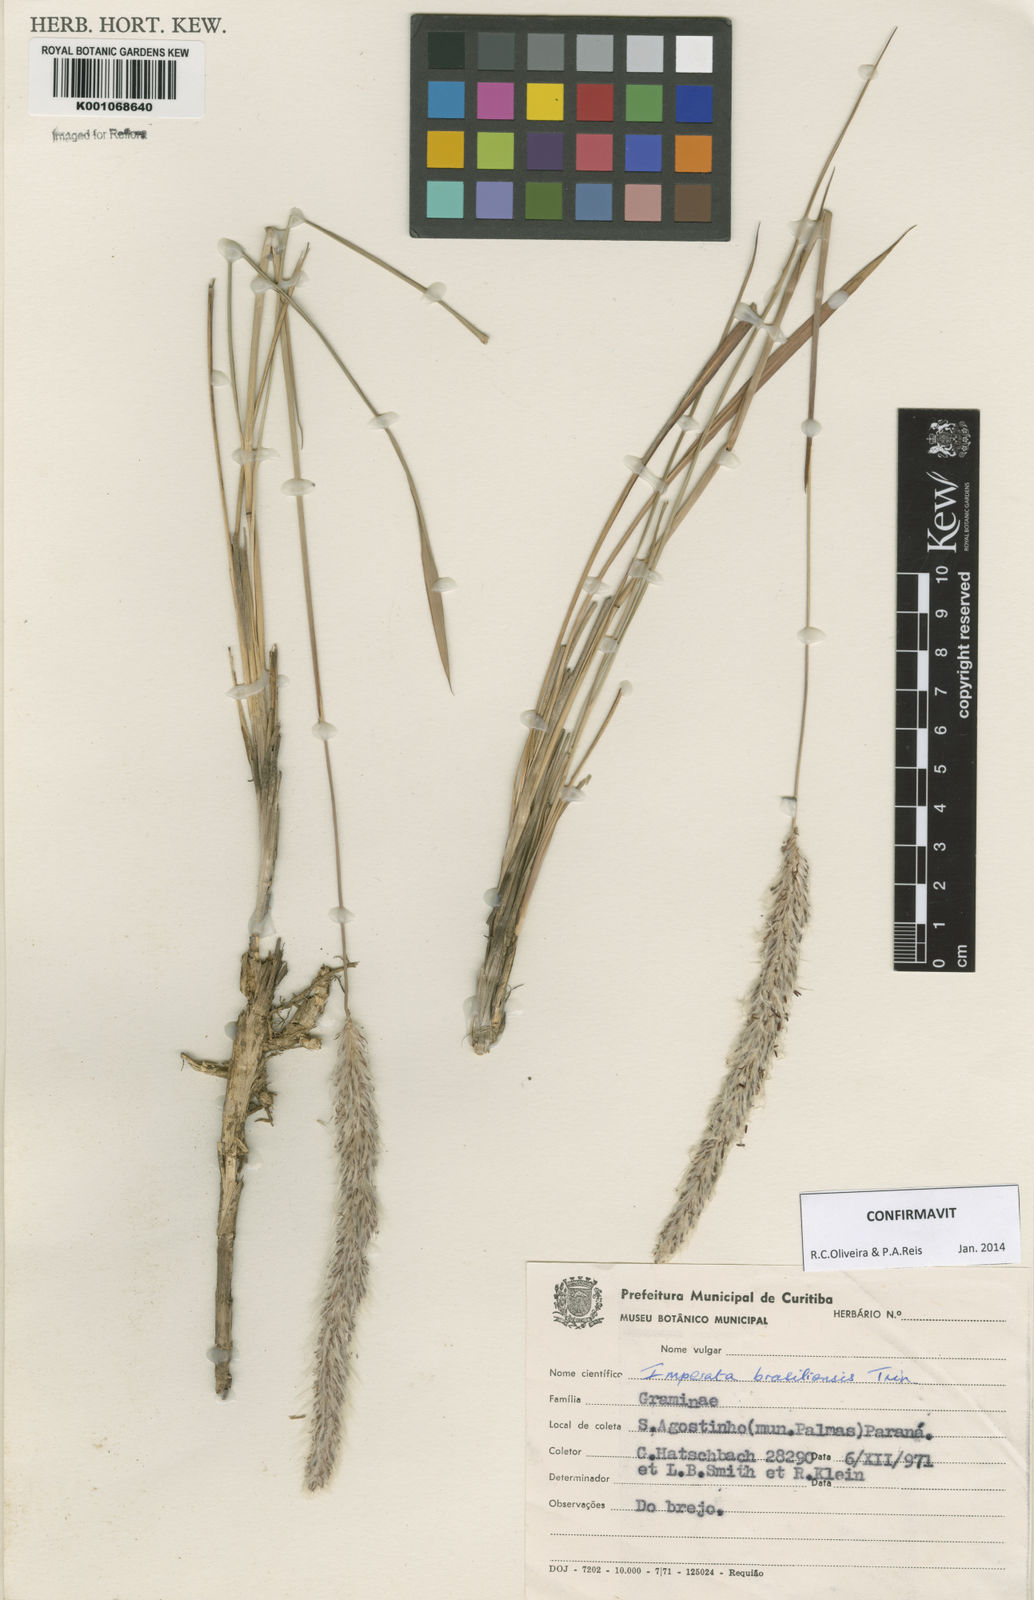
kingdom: Plantae
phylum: Tracheophyta
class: Liliopsida
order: Poales
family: Poaceae
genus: Imperata
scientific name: Imperata brasiliensis
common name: Brazilian satintail
